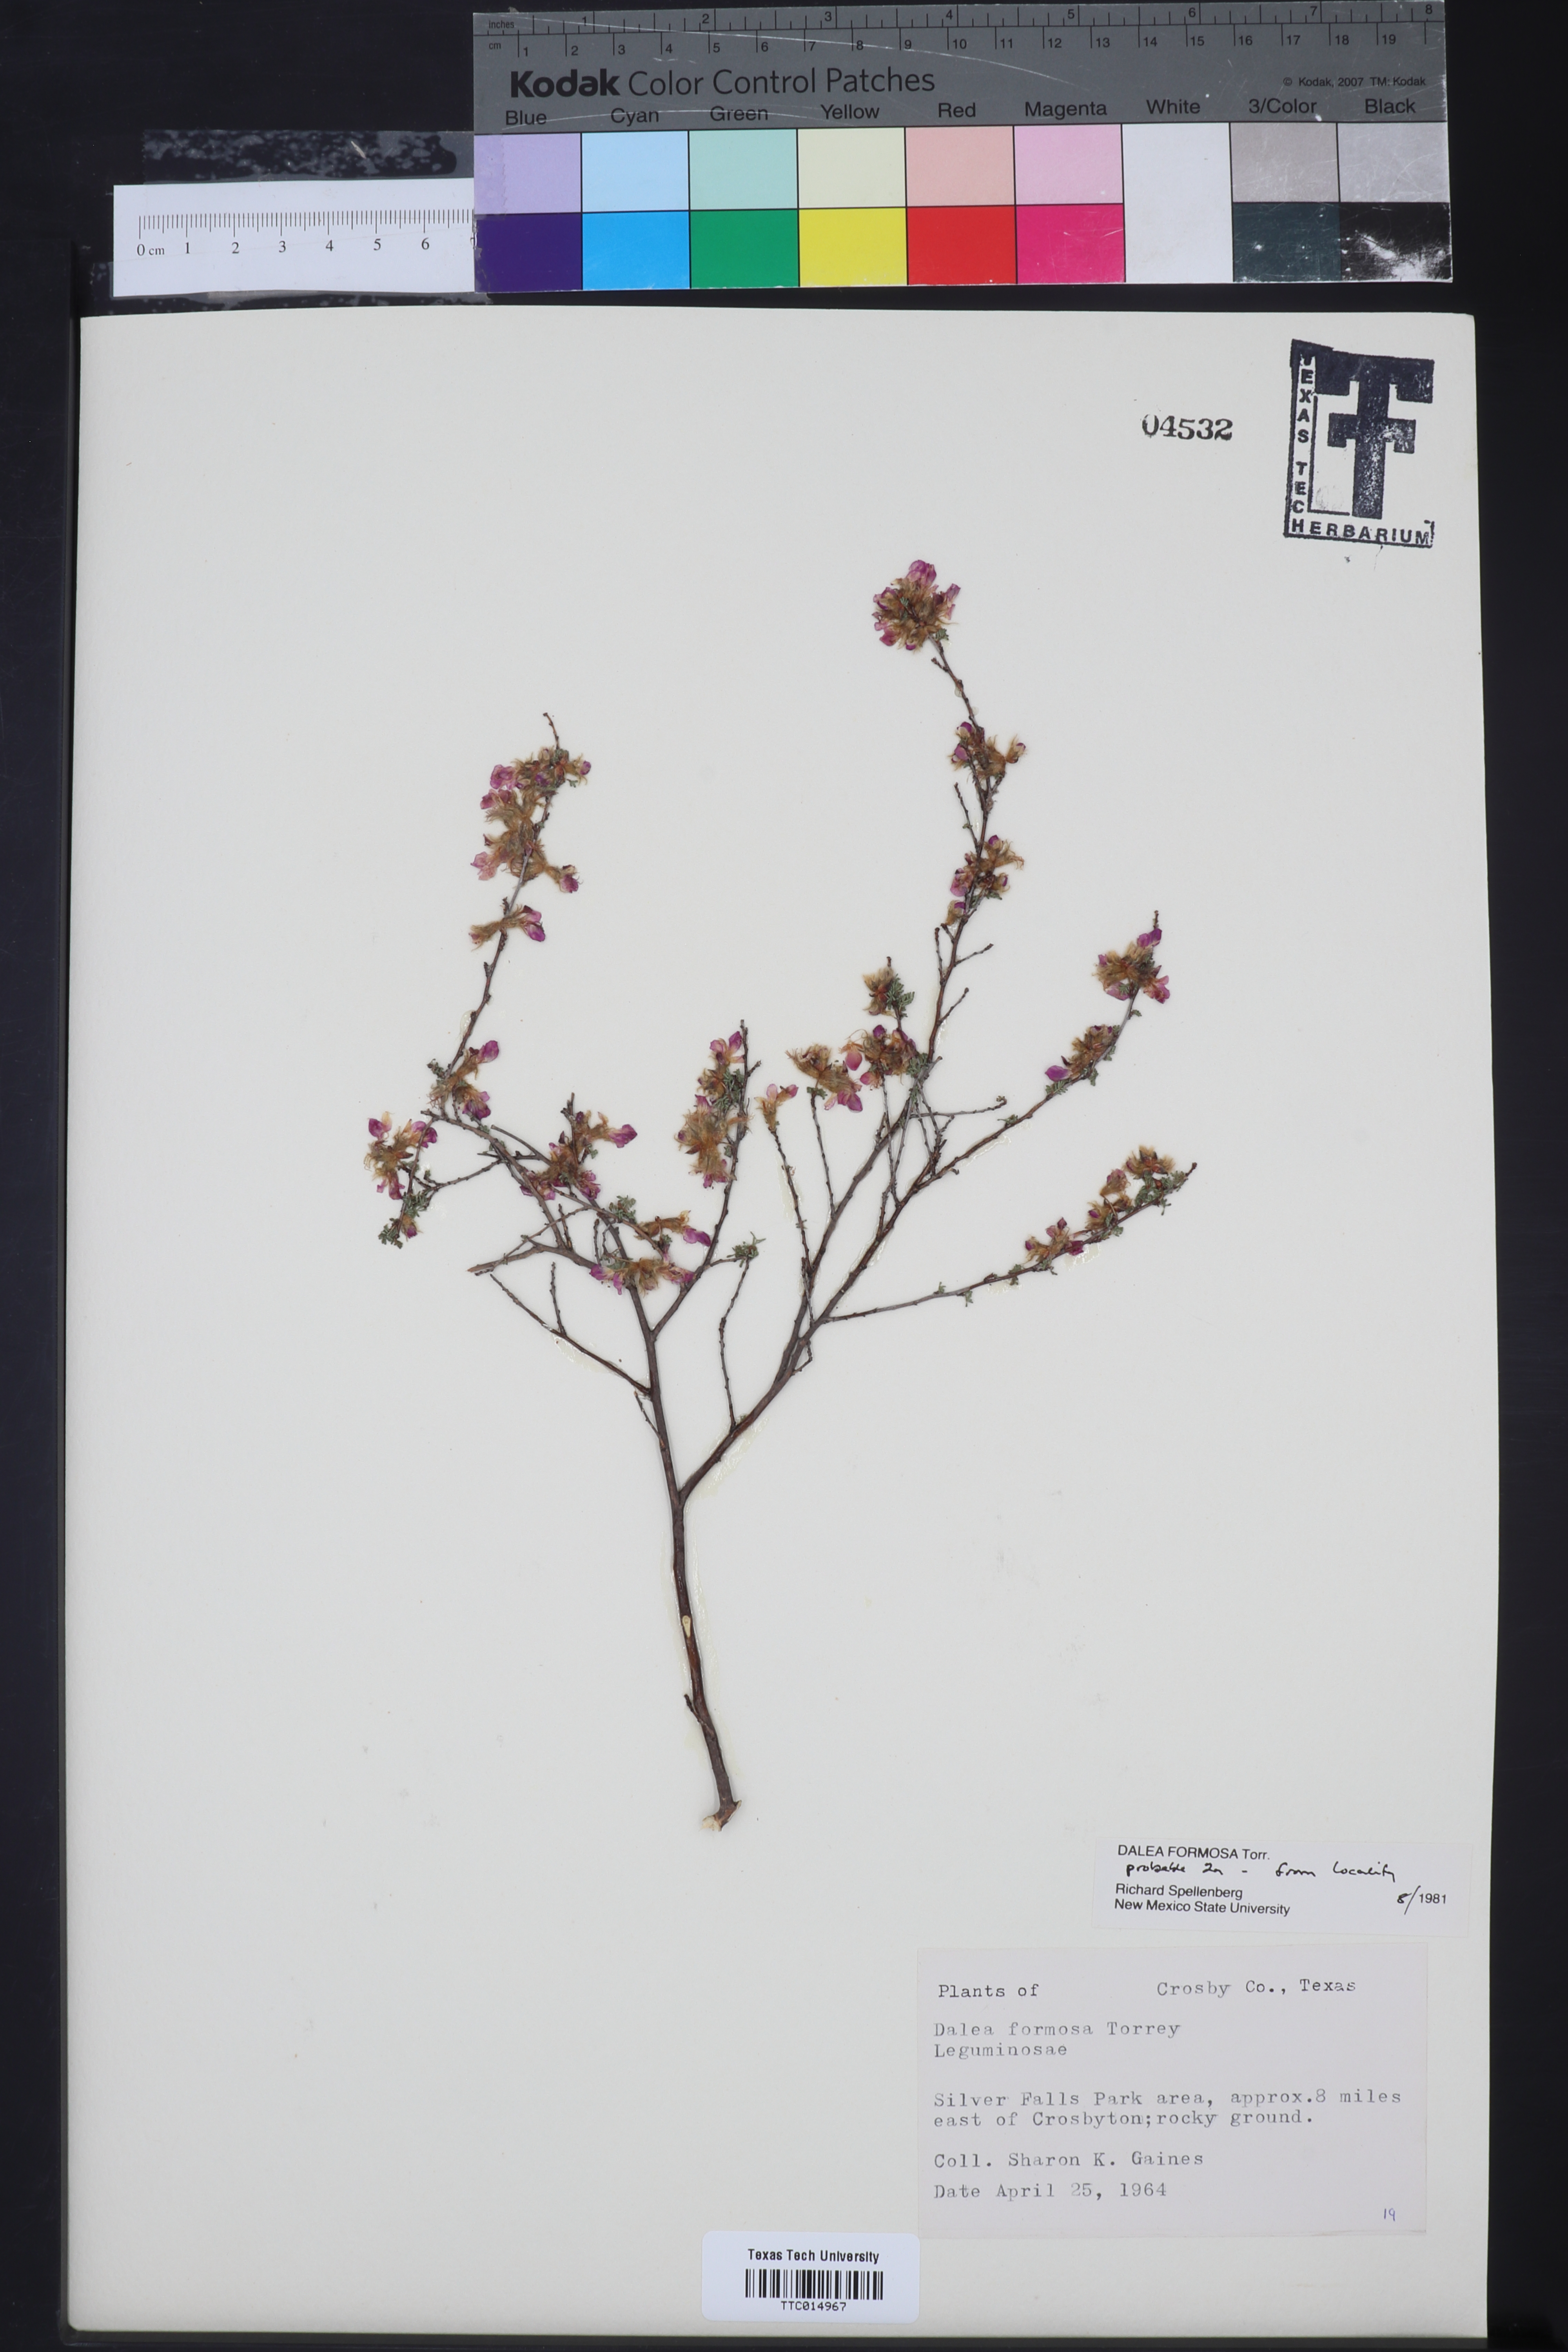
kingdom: Plantae
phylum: Tracheophyta
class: Magnoliopsida
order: Fabales
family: Fabaceae
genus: Dalea
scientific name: Dalea formosa
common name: Feather-plume dalea
